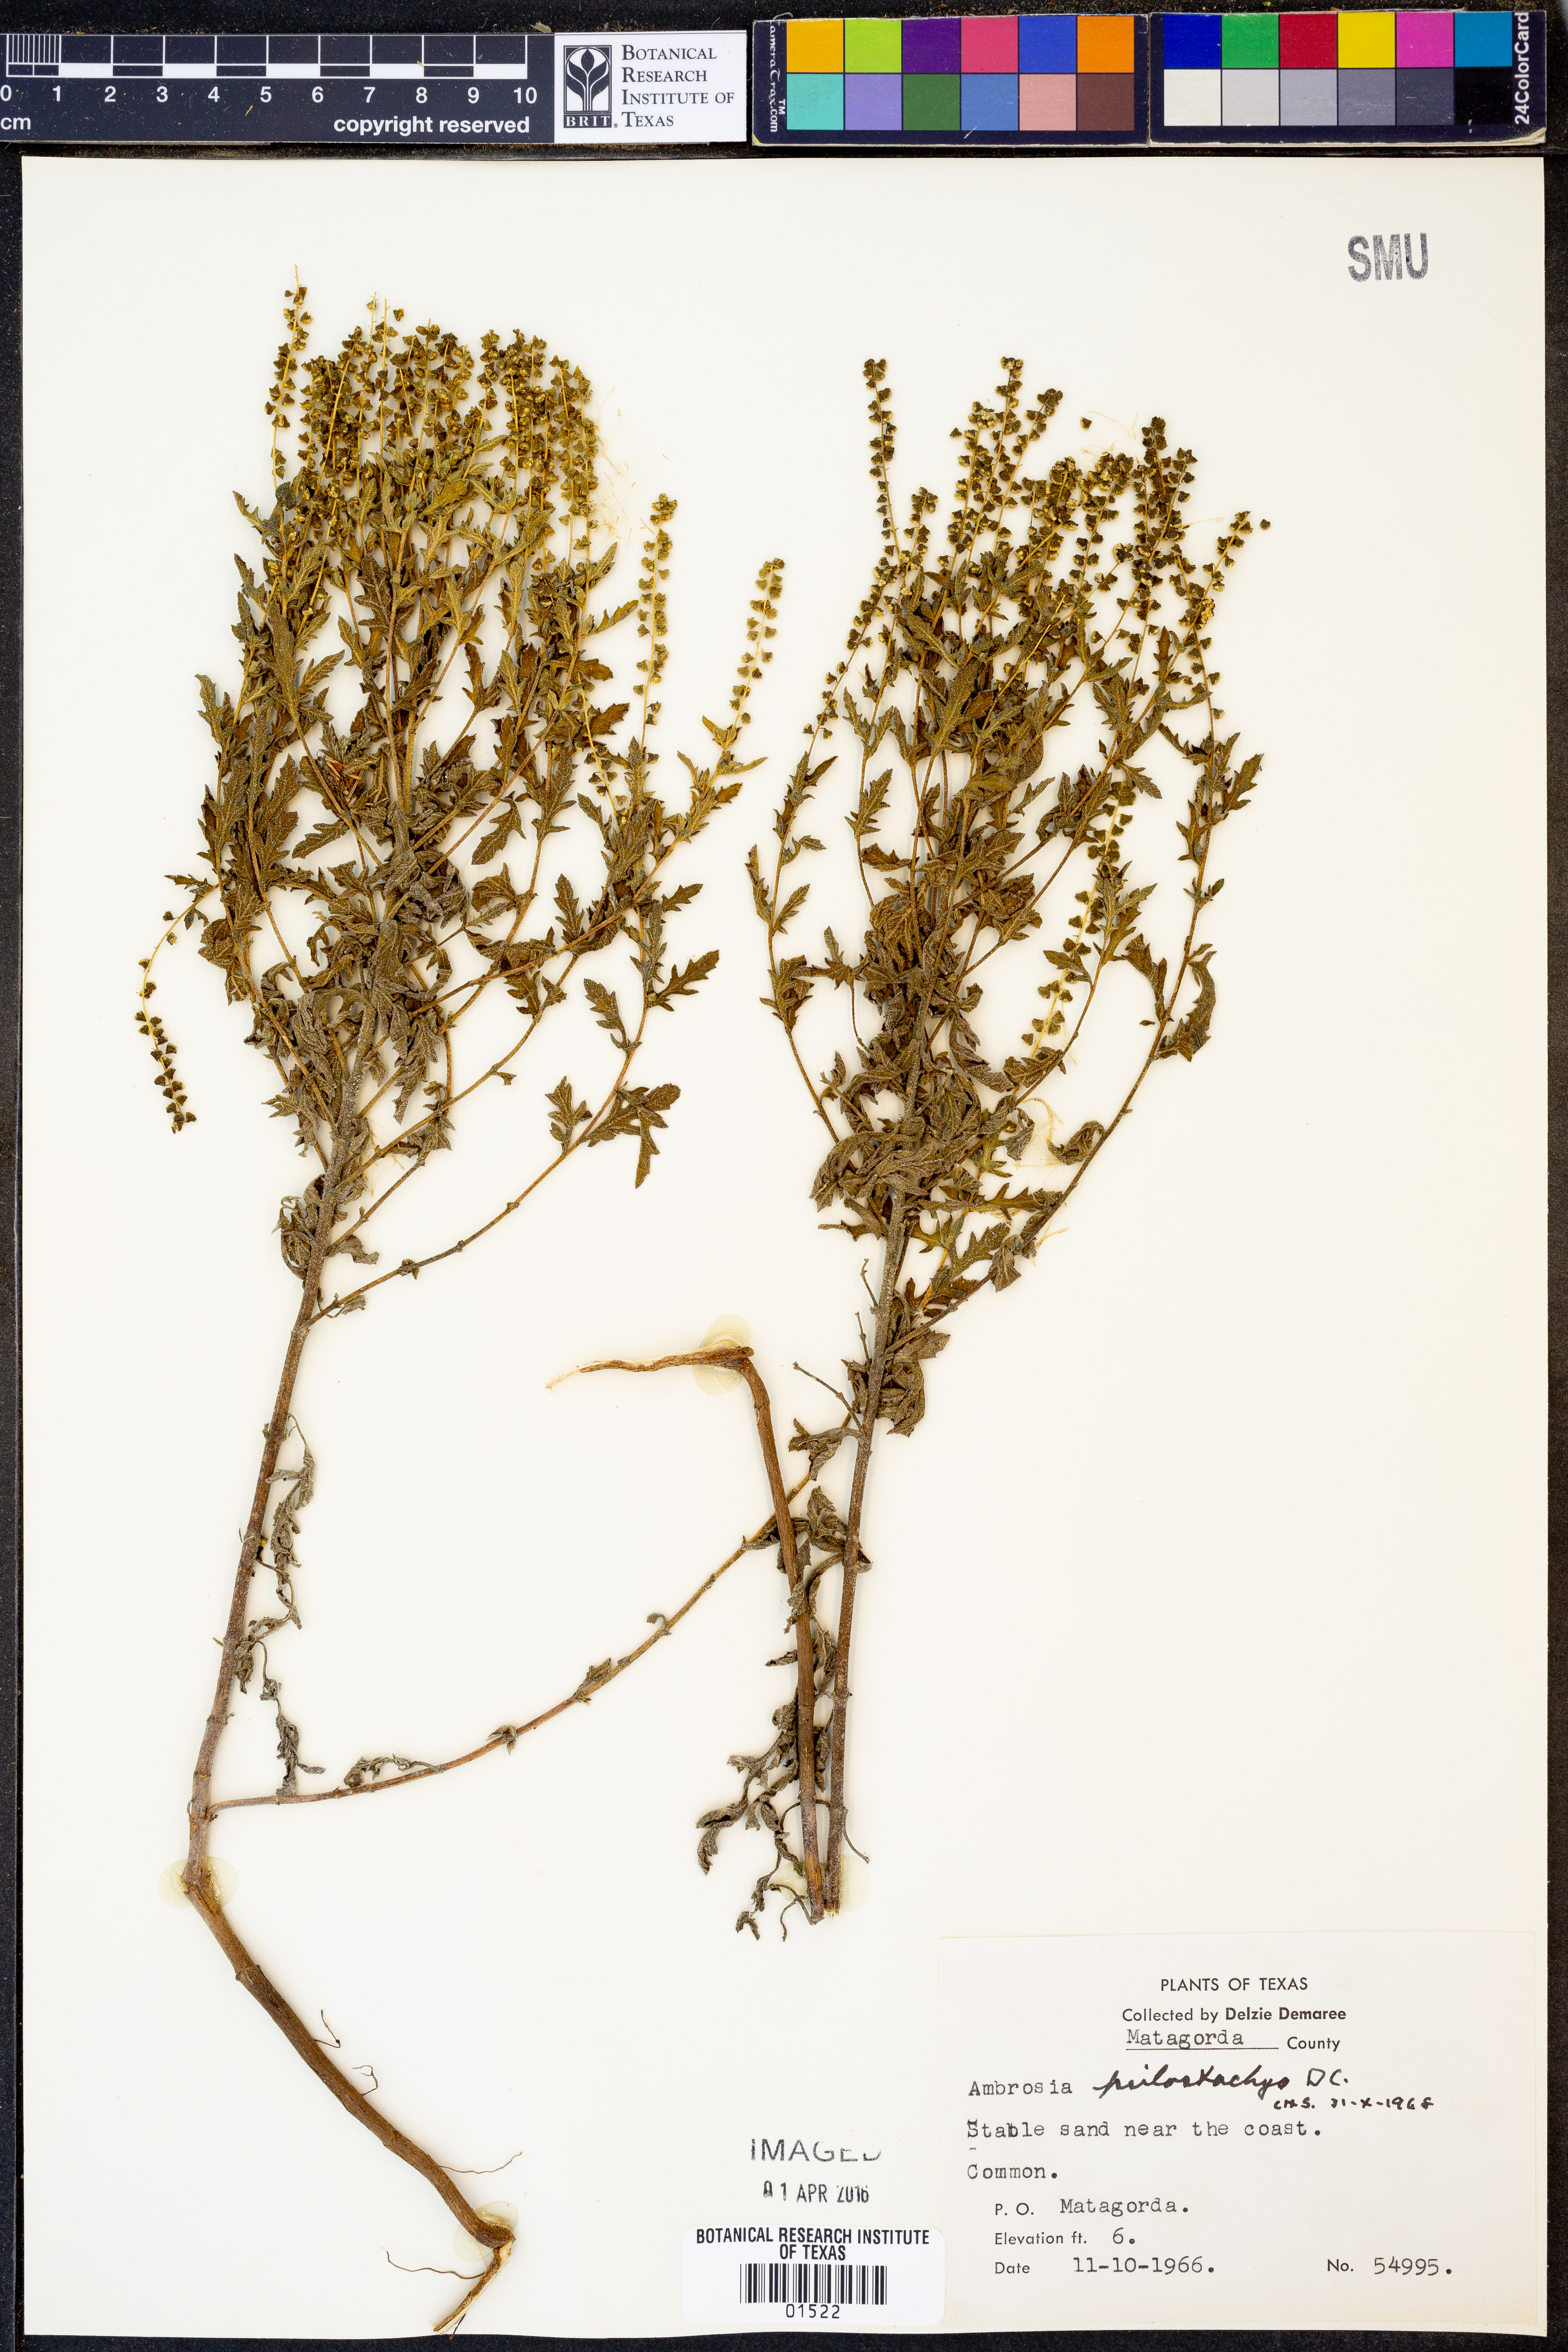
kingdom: Plantae
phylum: Tracheophyta
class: Magnoliopsida
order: Asterales
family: Asteraceae
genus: Ambrosia
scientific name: Ambrosia psilostachya
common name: Perennial ragweed
